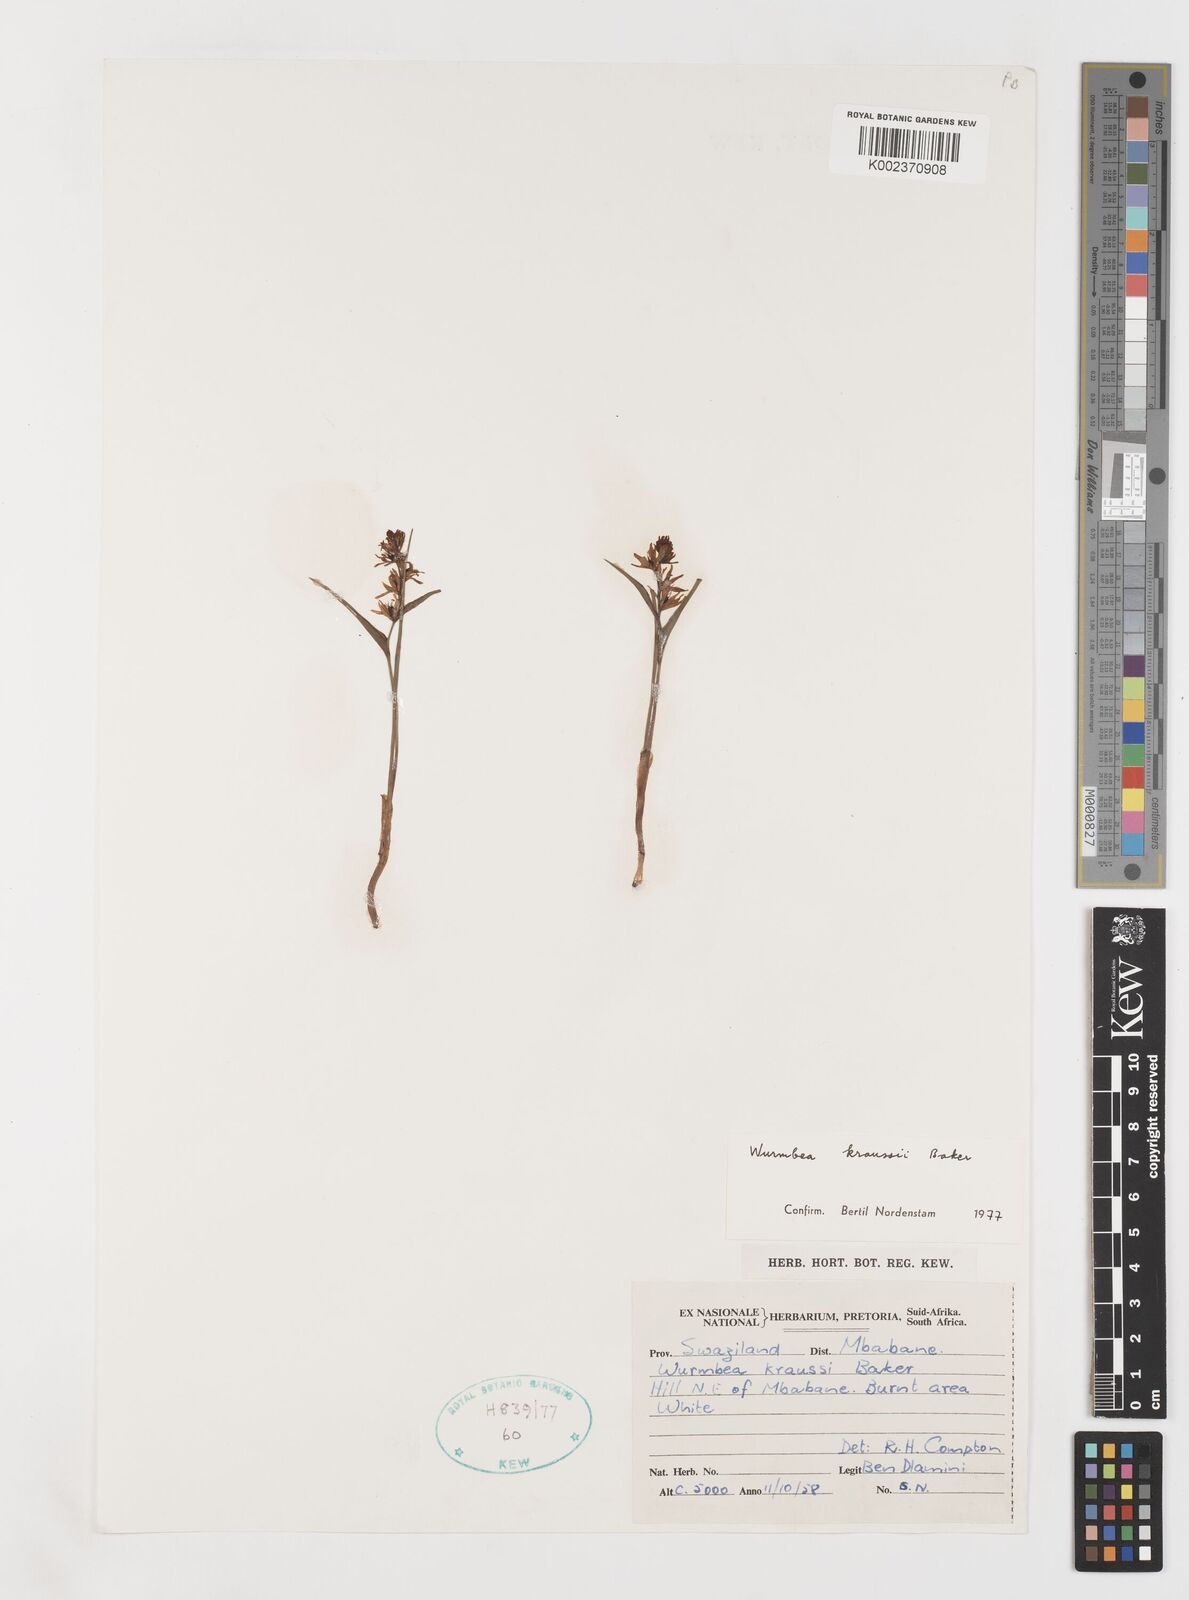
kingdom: Plantae
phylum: Tracheophyta
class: Liliopsida
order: Liliales
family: Colchicaceae
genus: Wurmbea
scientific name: Wurmbea kraussii
